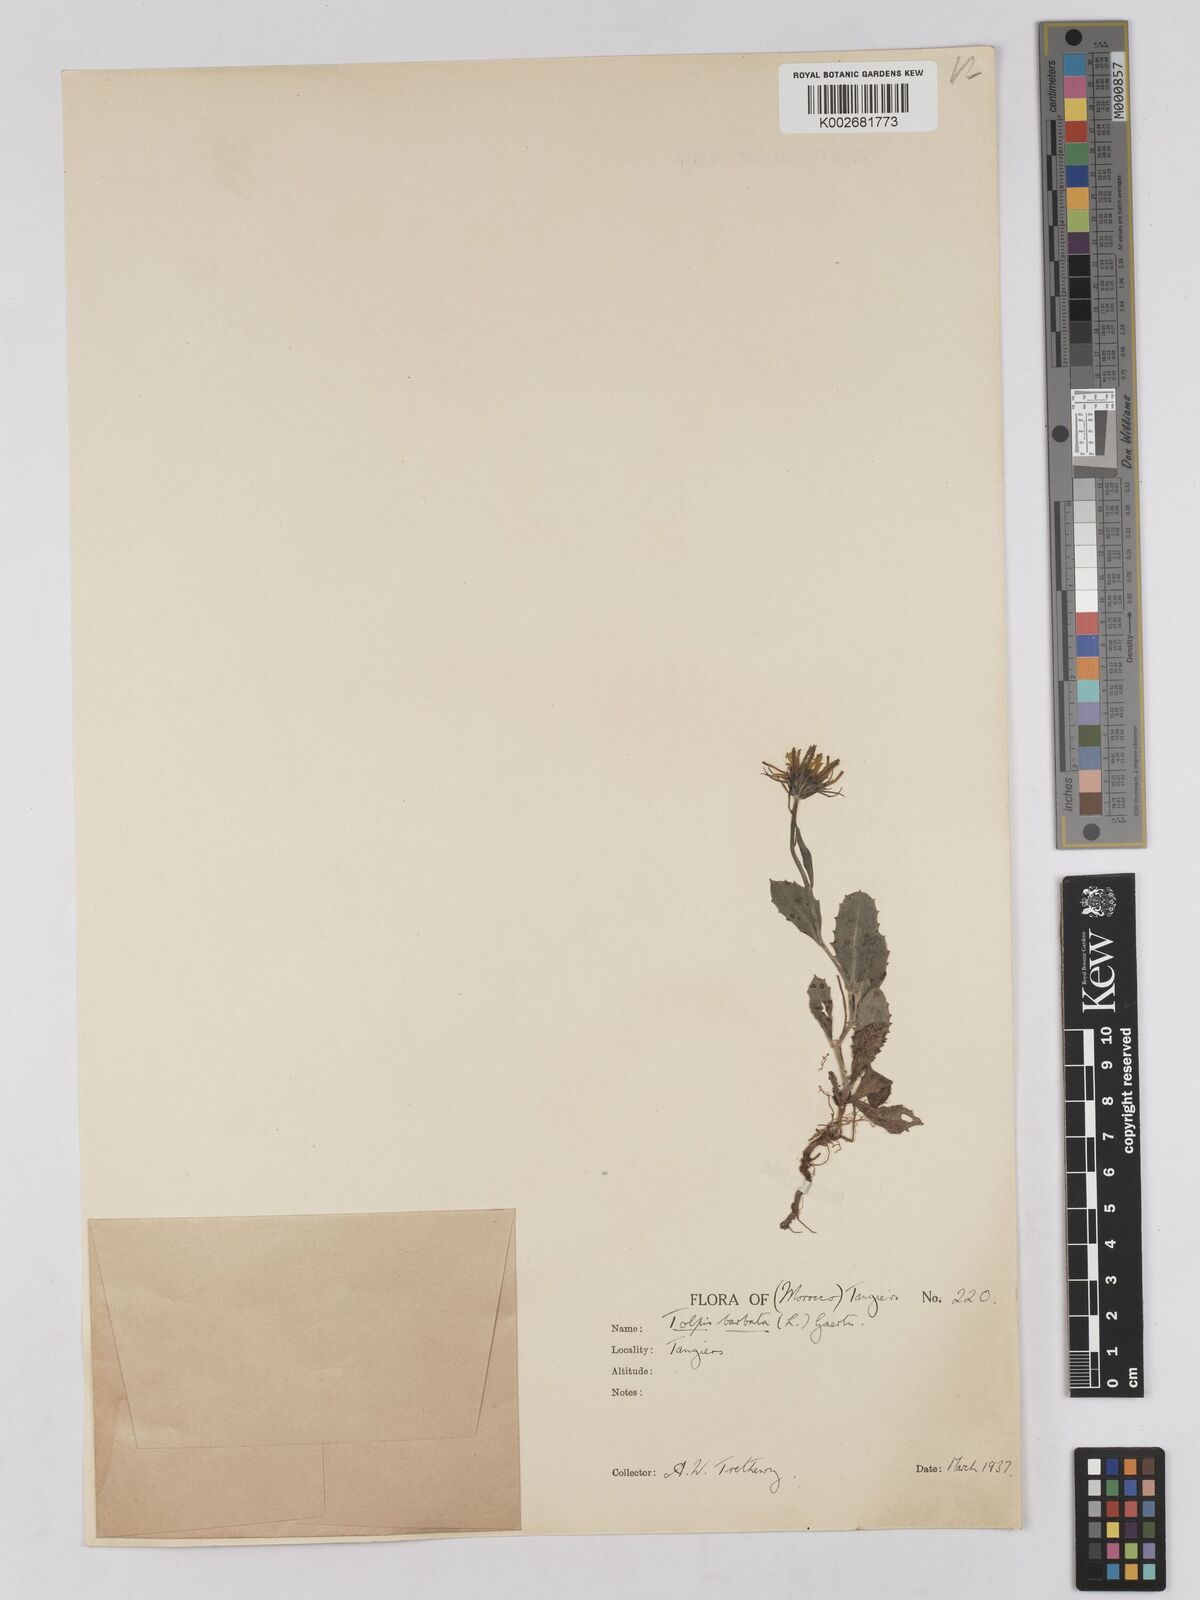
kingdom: Plantae
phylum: Tracheophyta
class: Magnoliopsida
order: Asterales
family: Asteraceae
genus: Tolpis
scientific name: Tolpis barbata
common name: Yellow hawkweed
